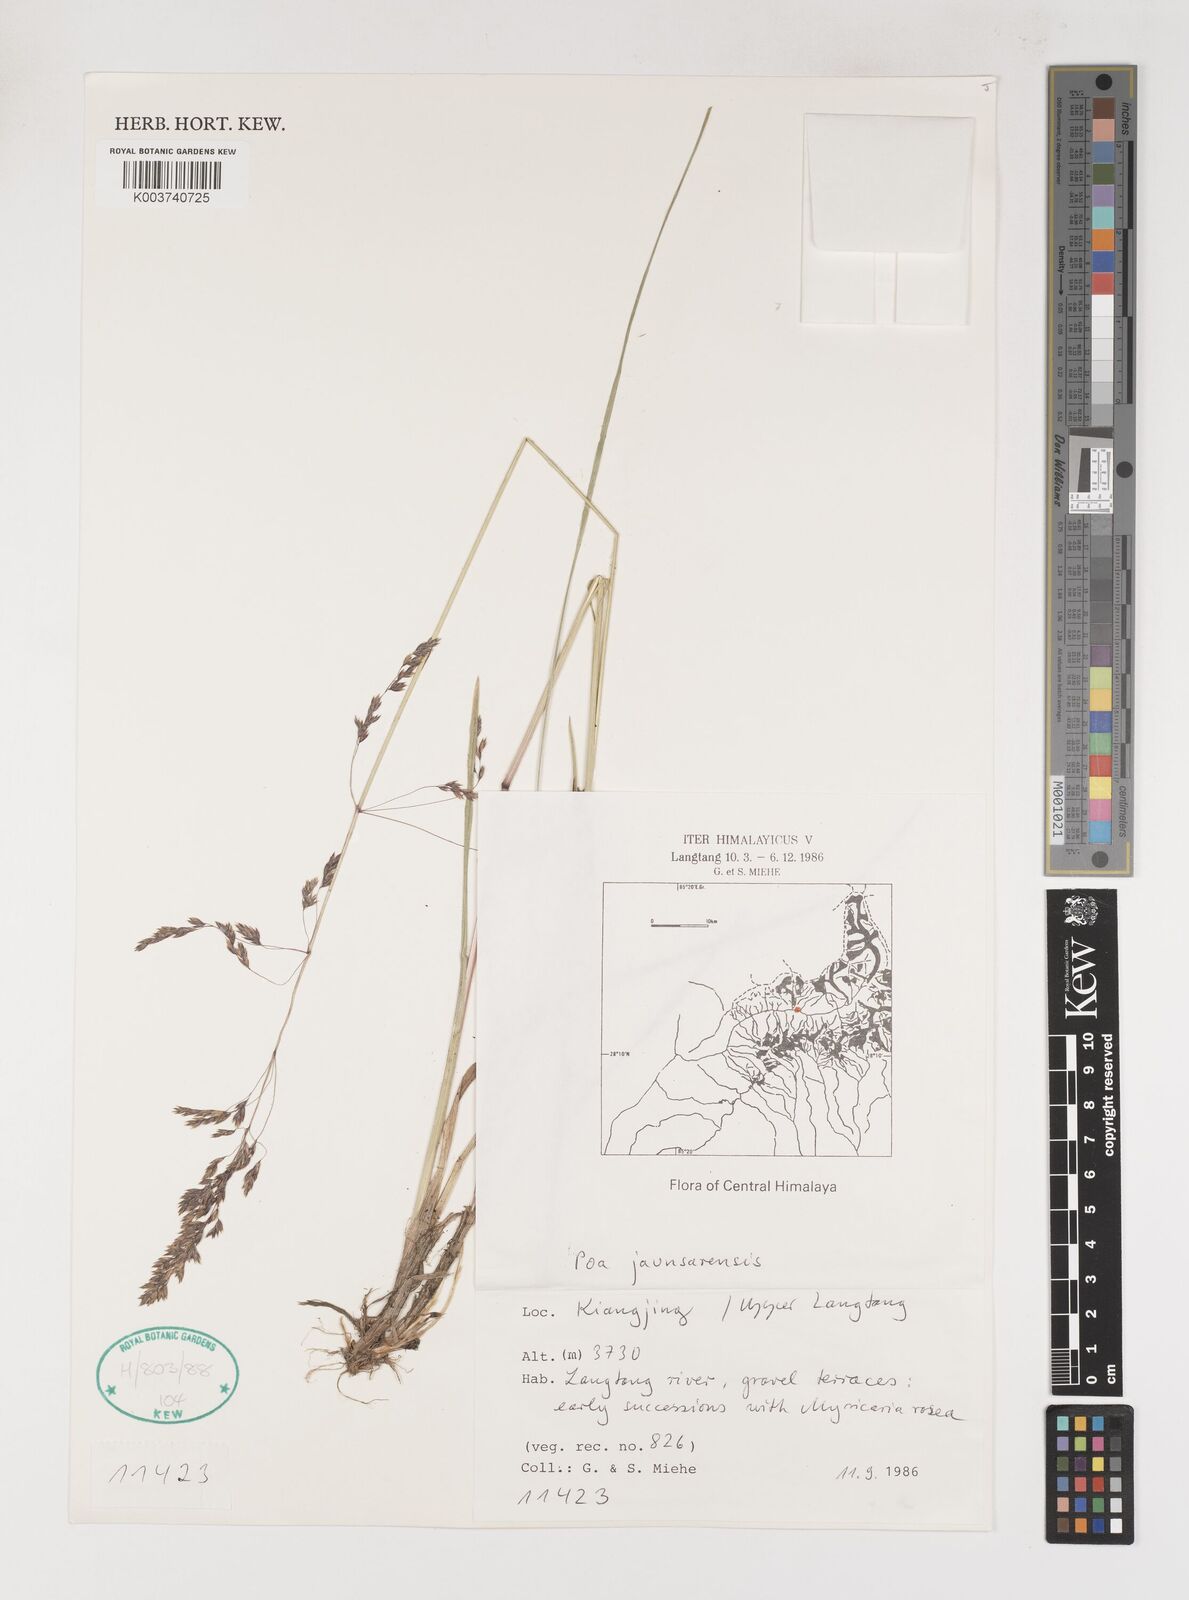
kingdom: Plantae
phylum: Tracheophyta
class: Liliopsida
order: Poales
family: Poaceae
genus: Poa
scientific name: Poa jaunsarensis
